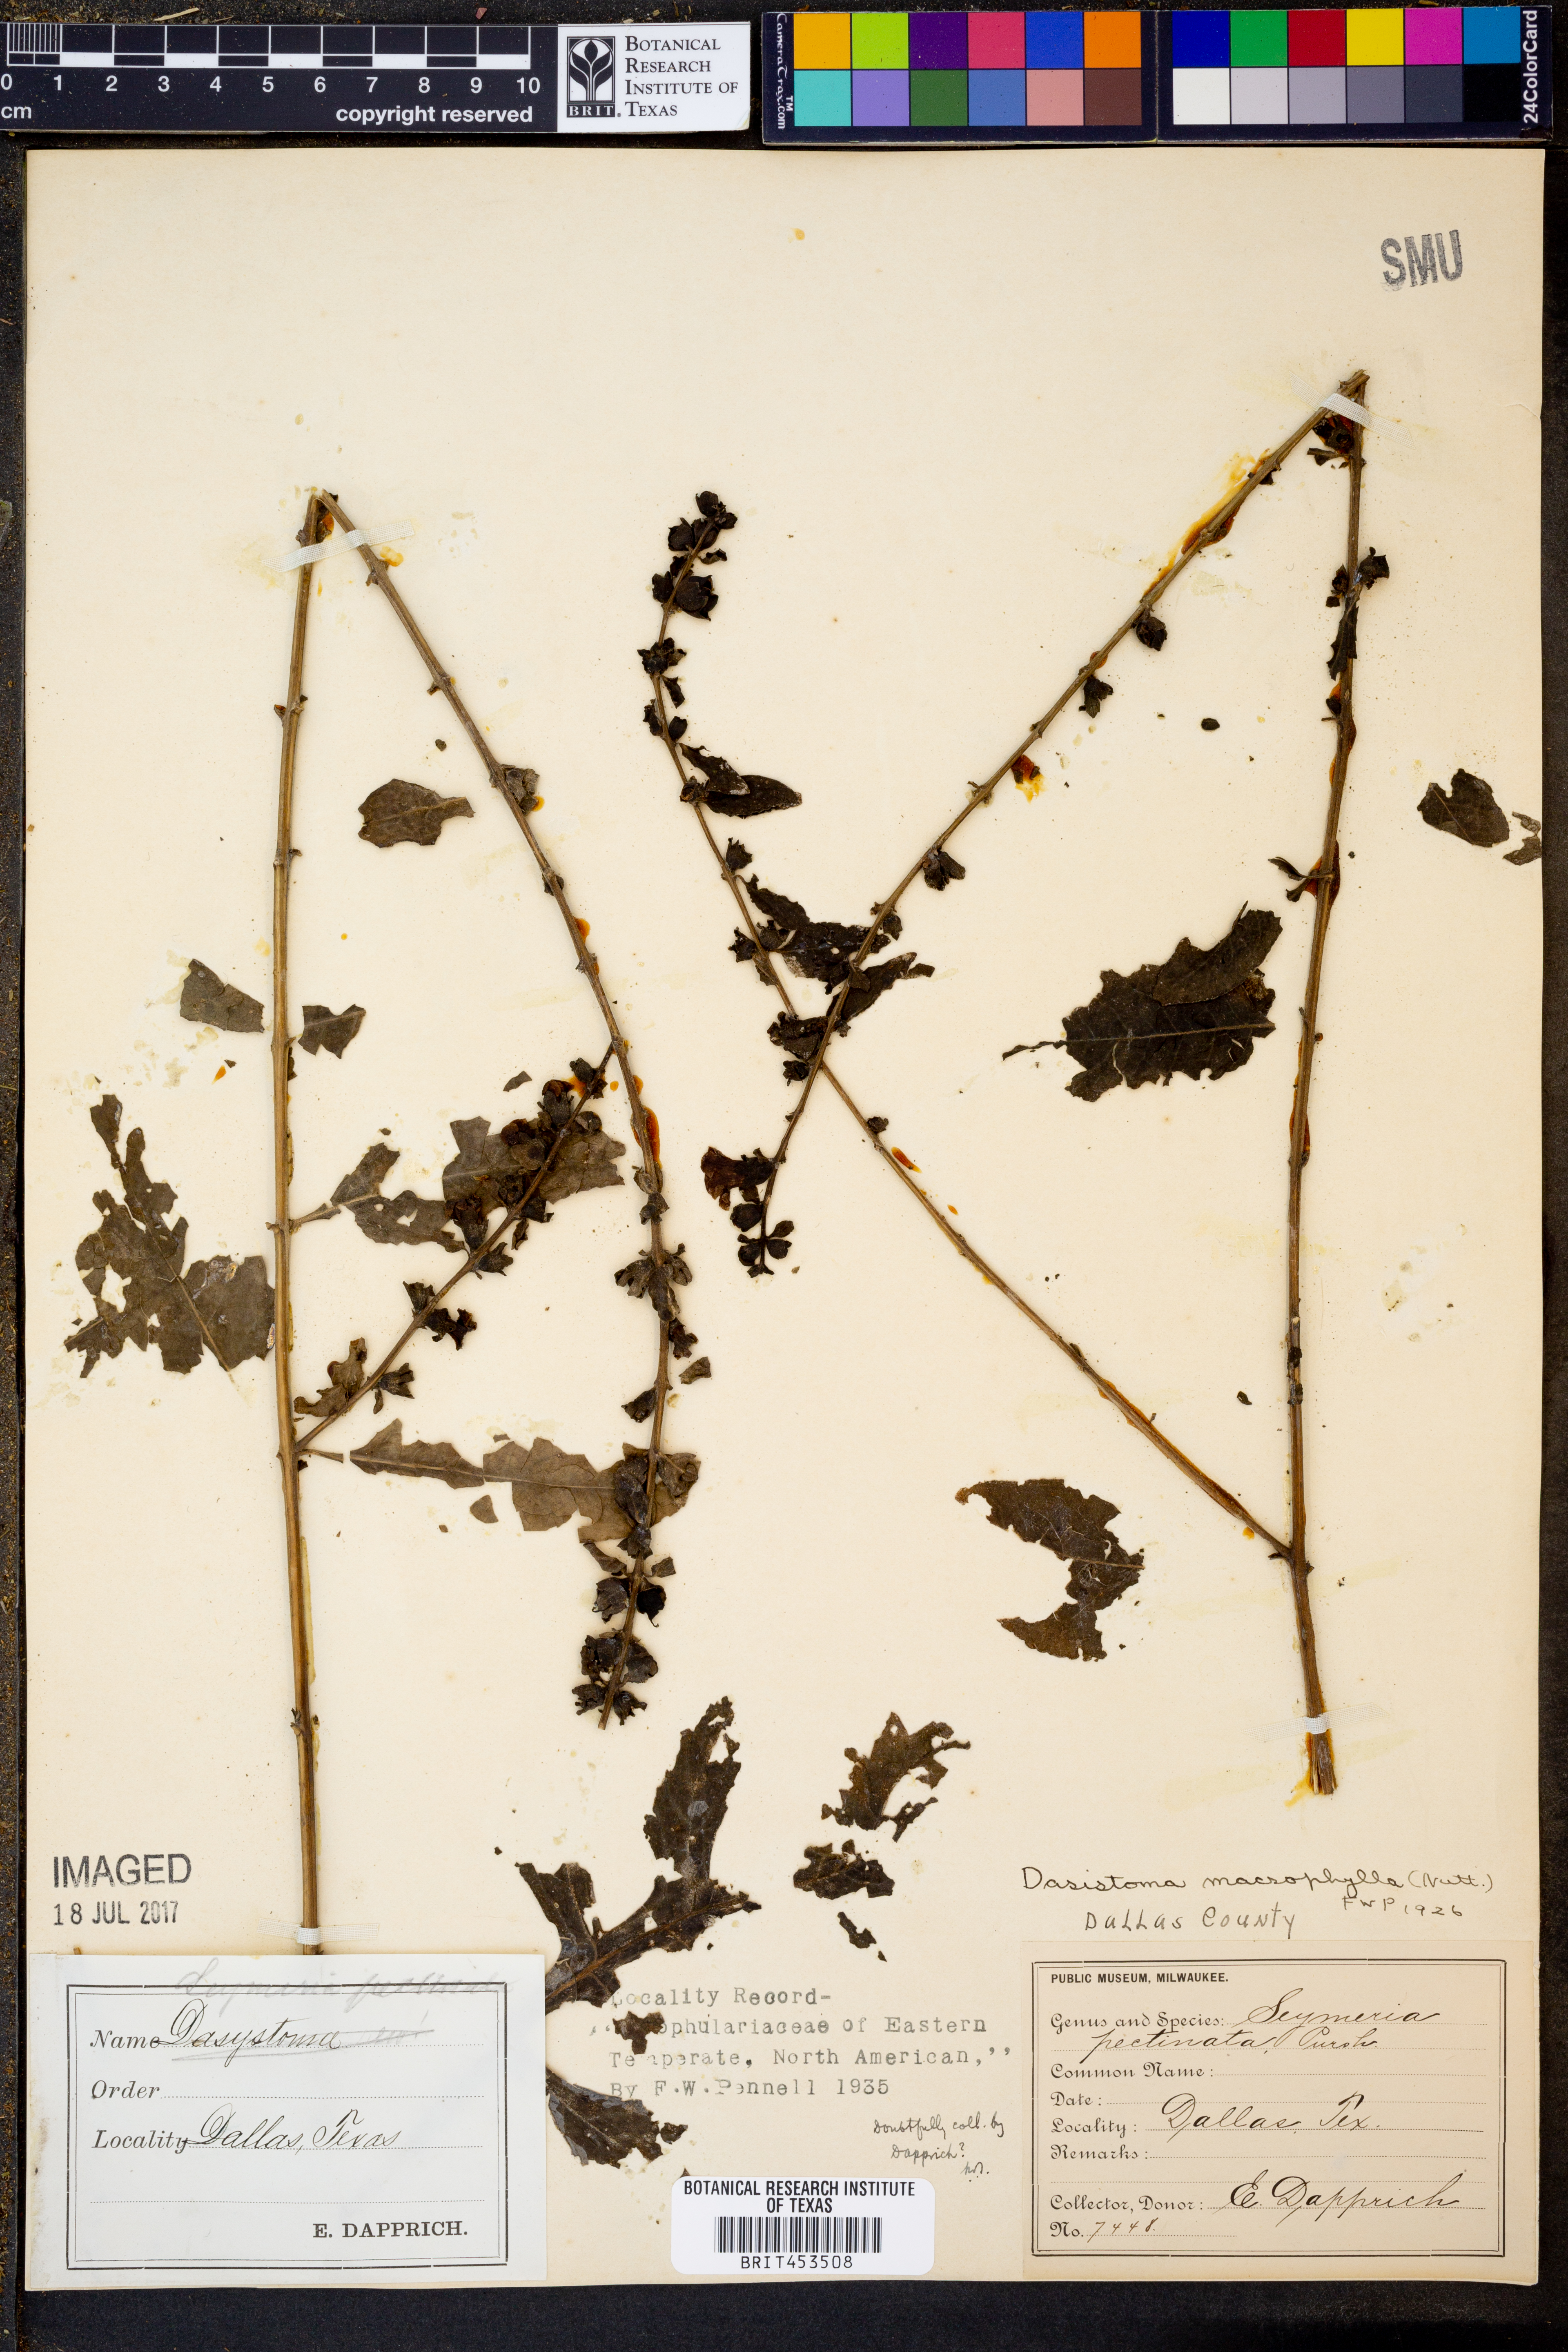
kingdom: Plantae
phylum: Tracheophyta
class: Magnoliopsida
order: Lamiales
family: Orobanchaceae
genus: Dasistoma
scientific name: Dasistoma macrophyllum
